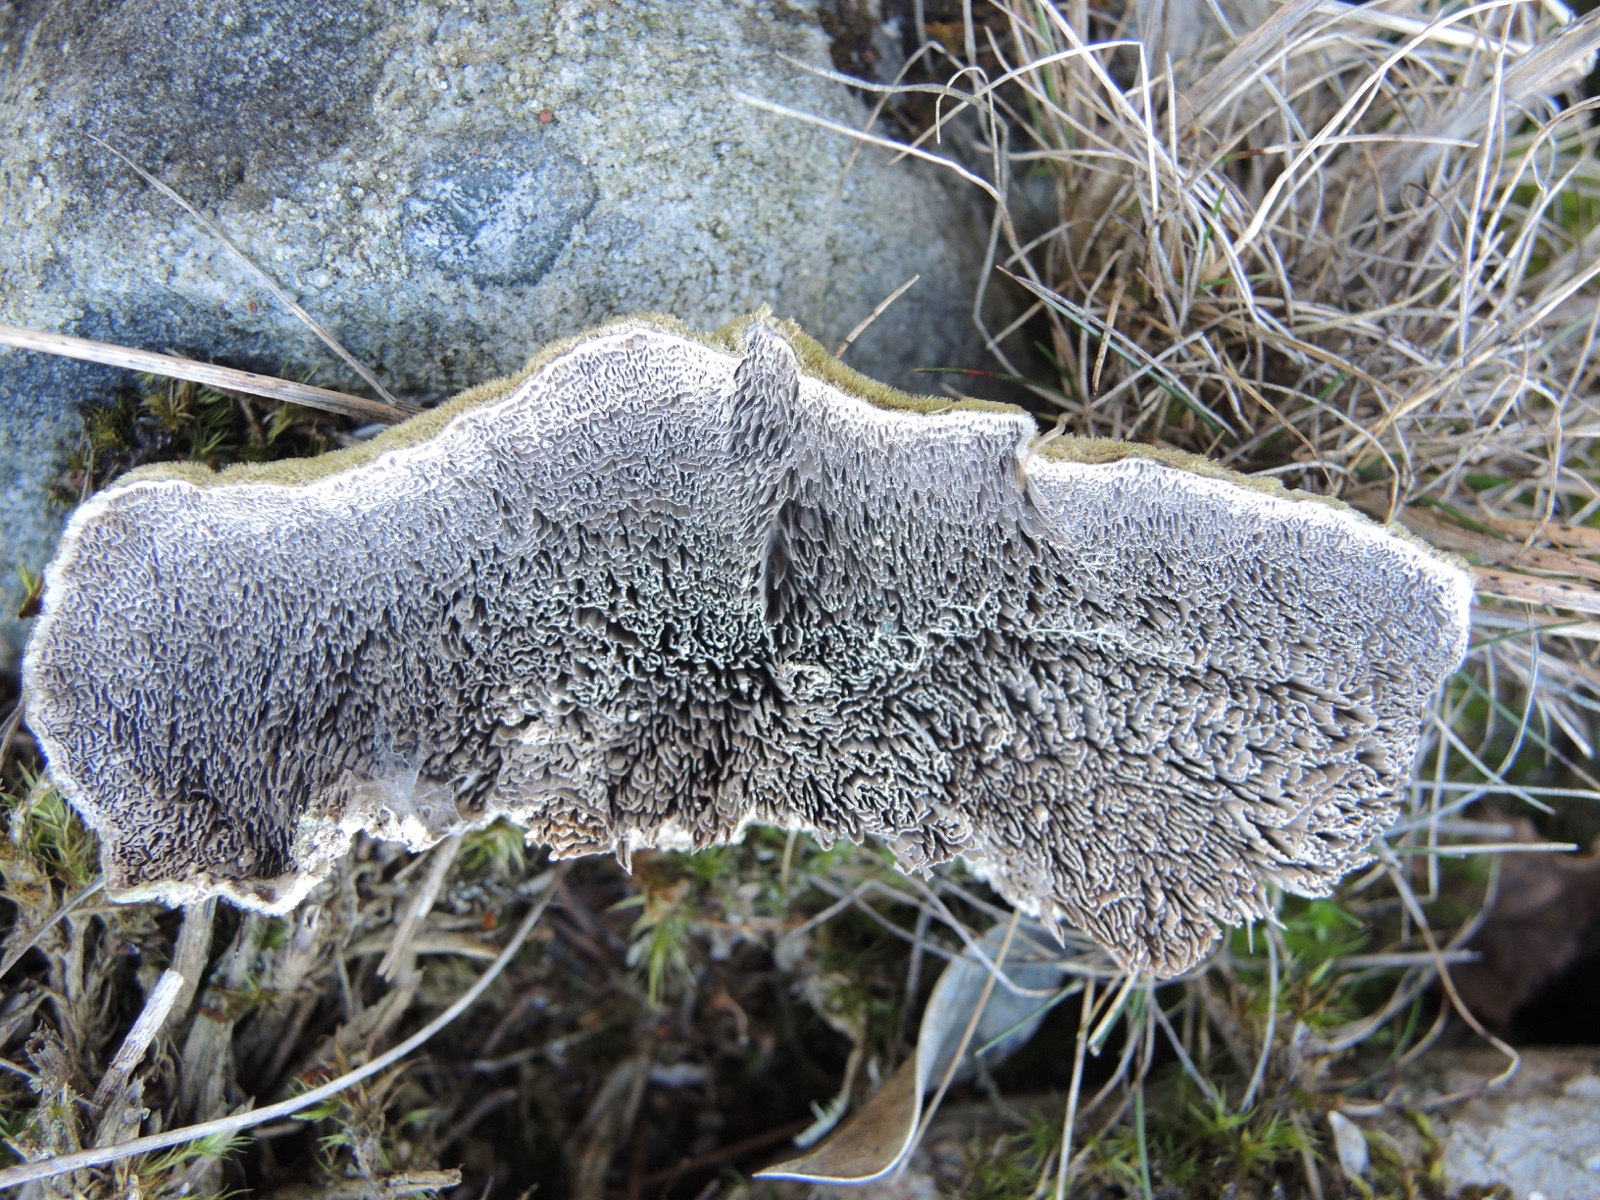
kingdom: Fungi
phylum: Basidiomycota
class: Agaricomycetes
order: Polyporales
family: Cerrenaceae
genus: Cerrena
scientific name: Cerrena unicolor
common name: ensfarvet læderporesvamp
